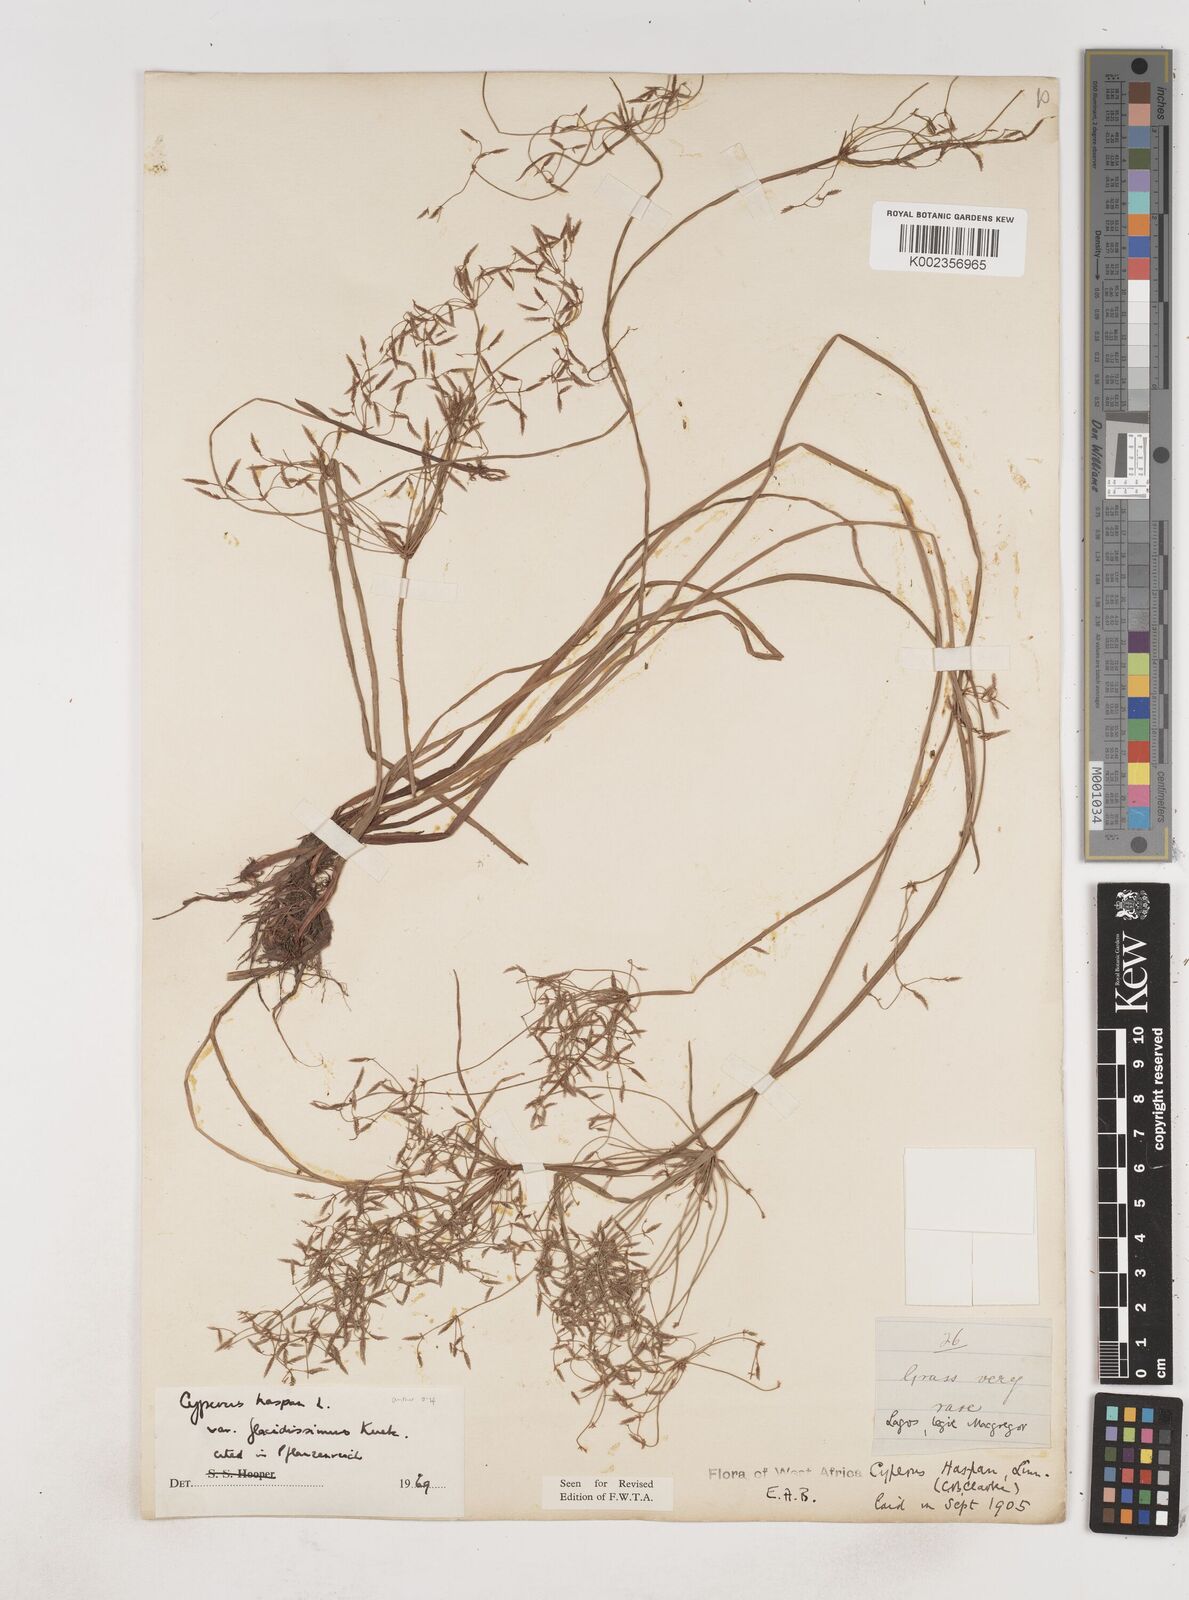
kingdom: Plantae
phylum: Tracheophyta
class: Liliopsida
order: Poales
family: Cyperaceae
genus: Cyperus
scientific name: Cyperus haspan
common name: Haspan flatsedge
